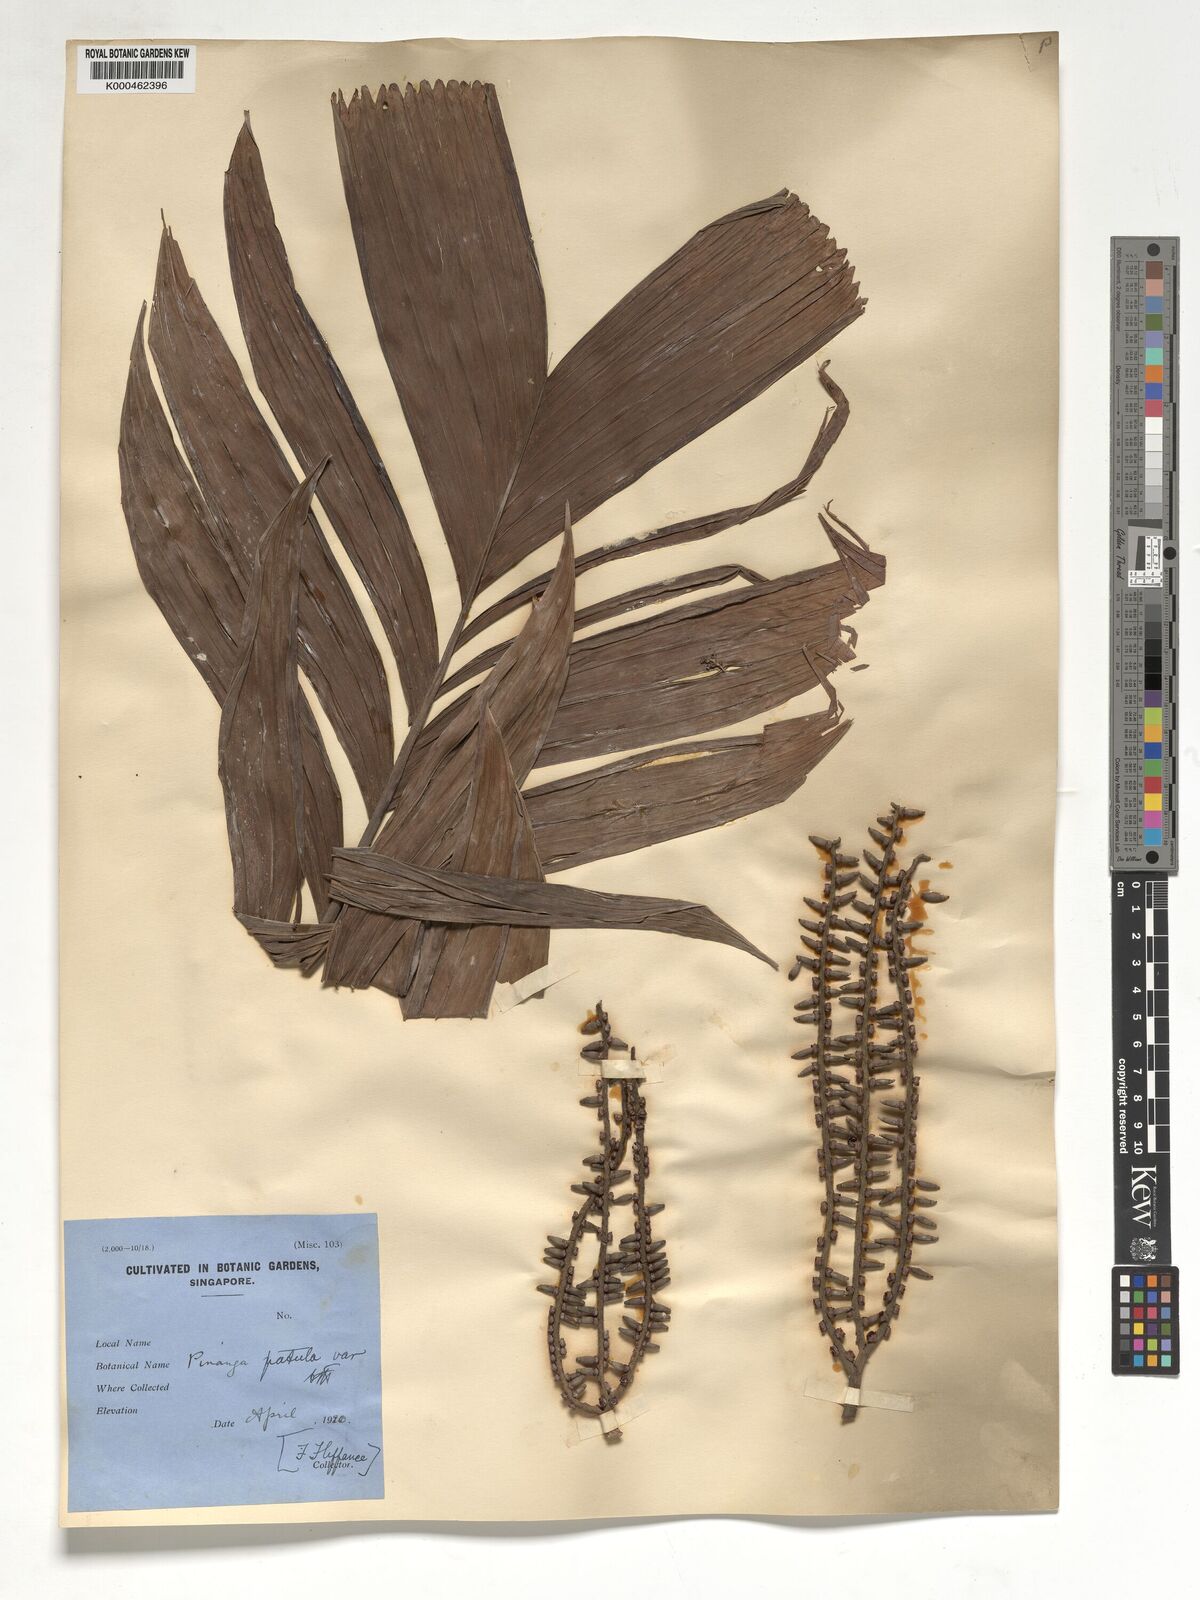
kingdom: Plantae
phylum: Tracheophyta
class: Liliopsida
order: Arecales
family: Arecaceae
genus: Pinanga
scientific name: Pinanga patula
